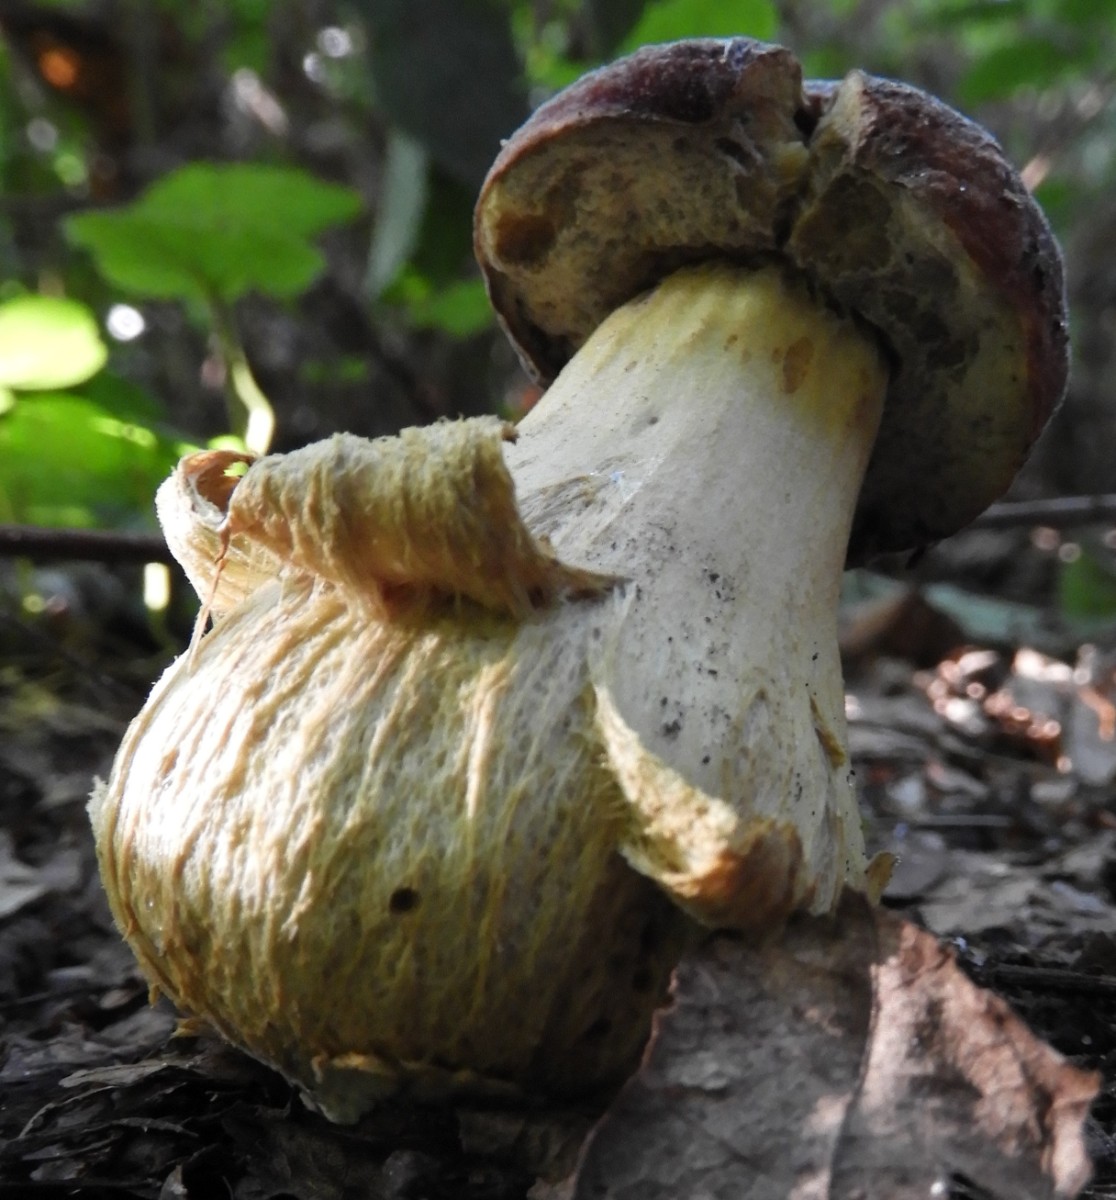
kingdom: Fungi
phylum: Basidiomycota
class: Agaricomycetes
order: Boletales
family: Boletaceae
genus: Boletus
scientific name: Boletus
